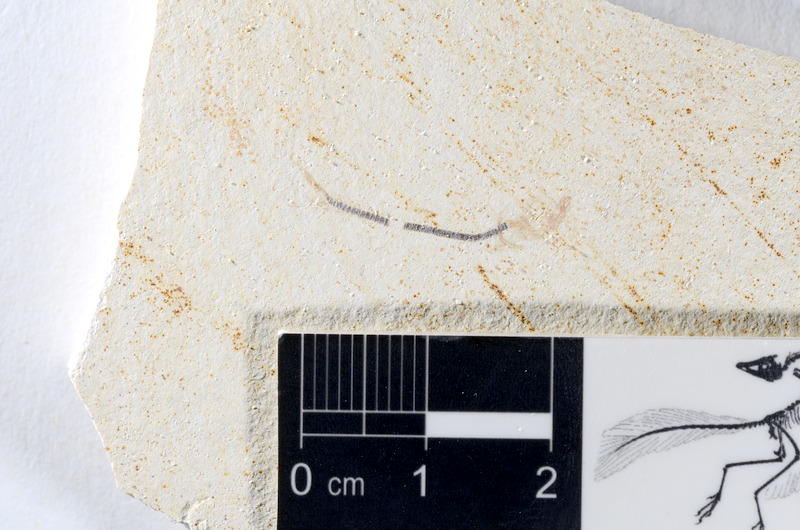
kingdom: Animalia
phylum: Chordata
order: Salmoniformes
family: Orthogonikleithridae
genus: Orthogonikleithrus
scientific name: Orthogonikleithrus hoelli
